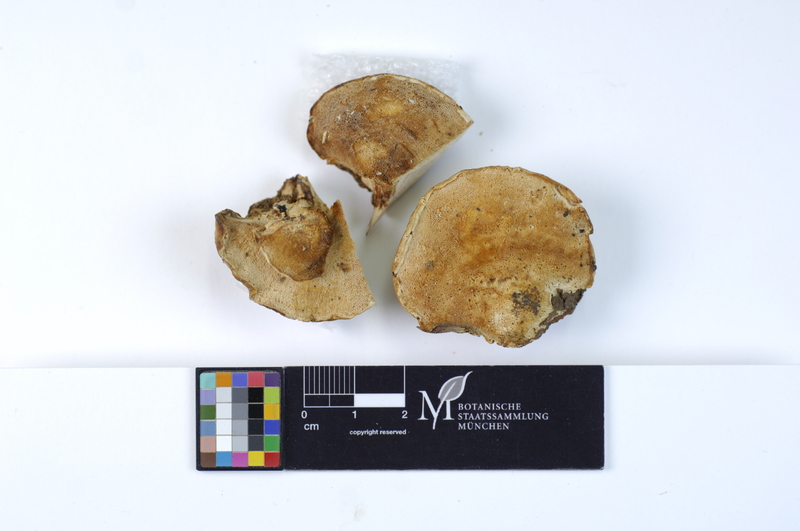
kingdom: Plantae
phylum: Tracheophyta
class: Magnoliopsida
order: Fagales
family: Fagaceae
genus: Fagus
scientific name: Fagus sylvatica
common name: Beech
